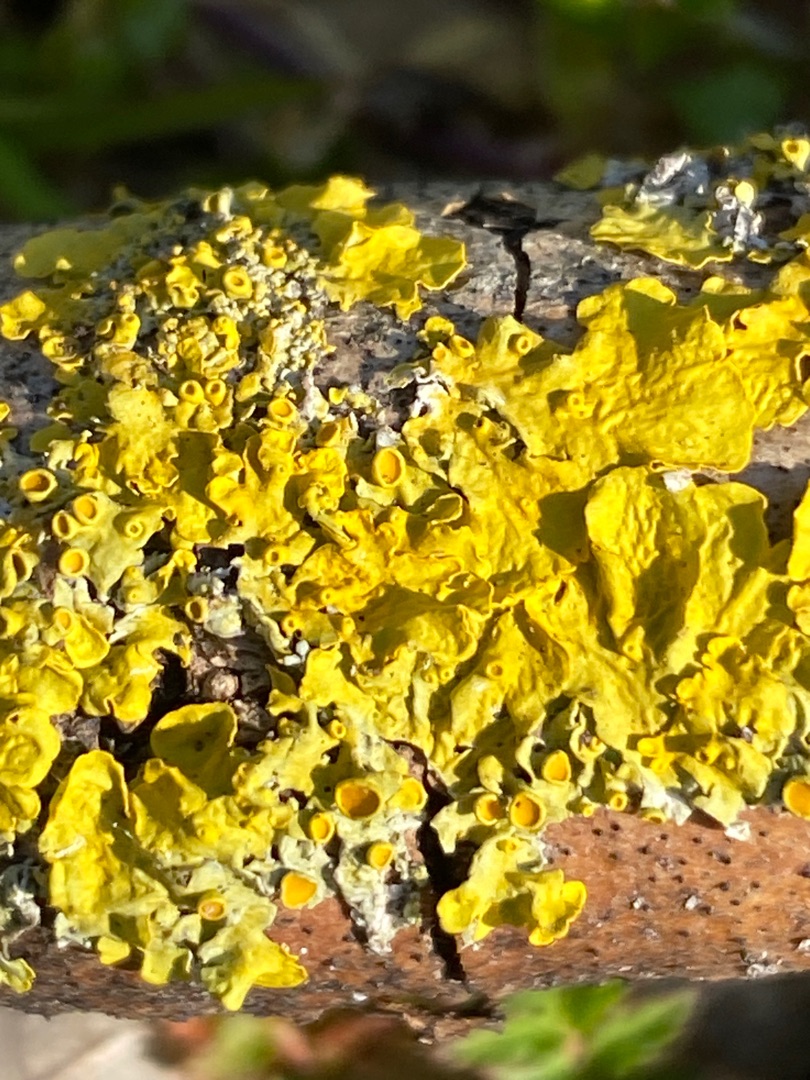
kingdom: Fungi
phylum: Ascomycota
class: Lecanoromycetes
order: Teloschistales
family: Teloschistaceae
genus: Xanthoria
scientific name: Xanthoria parietina
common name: Almindelig væggelav
